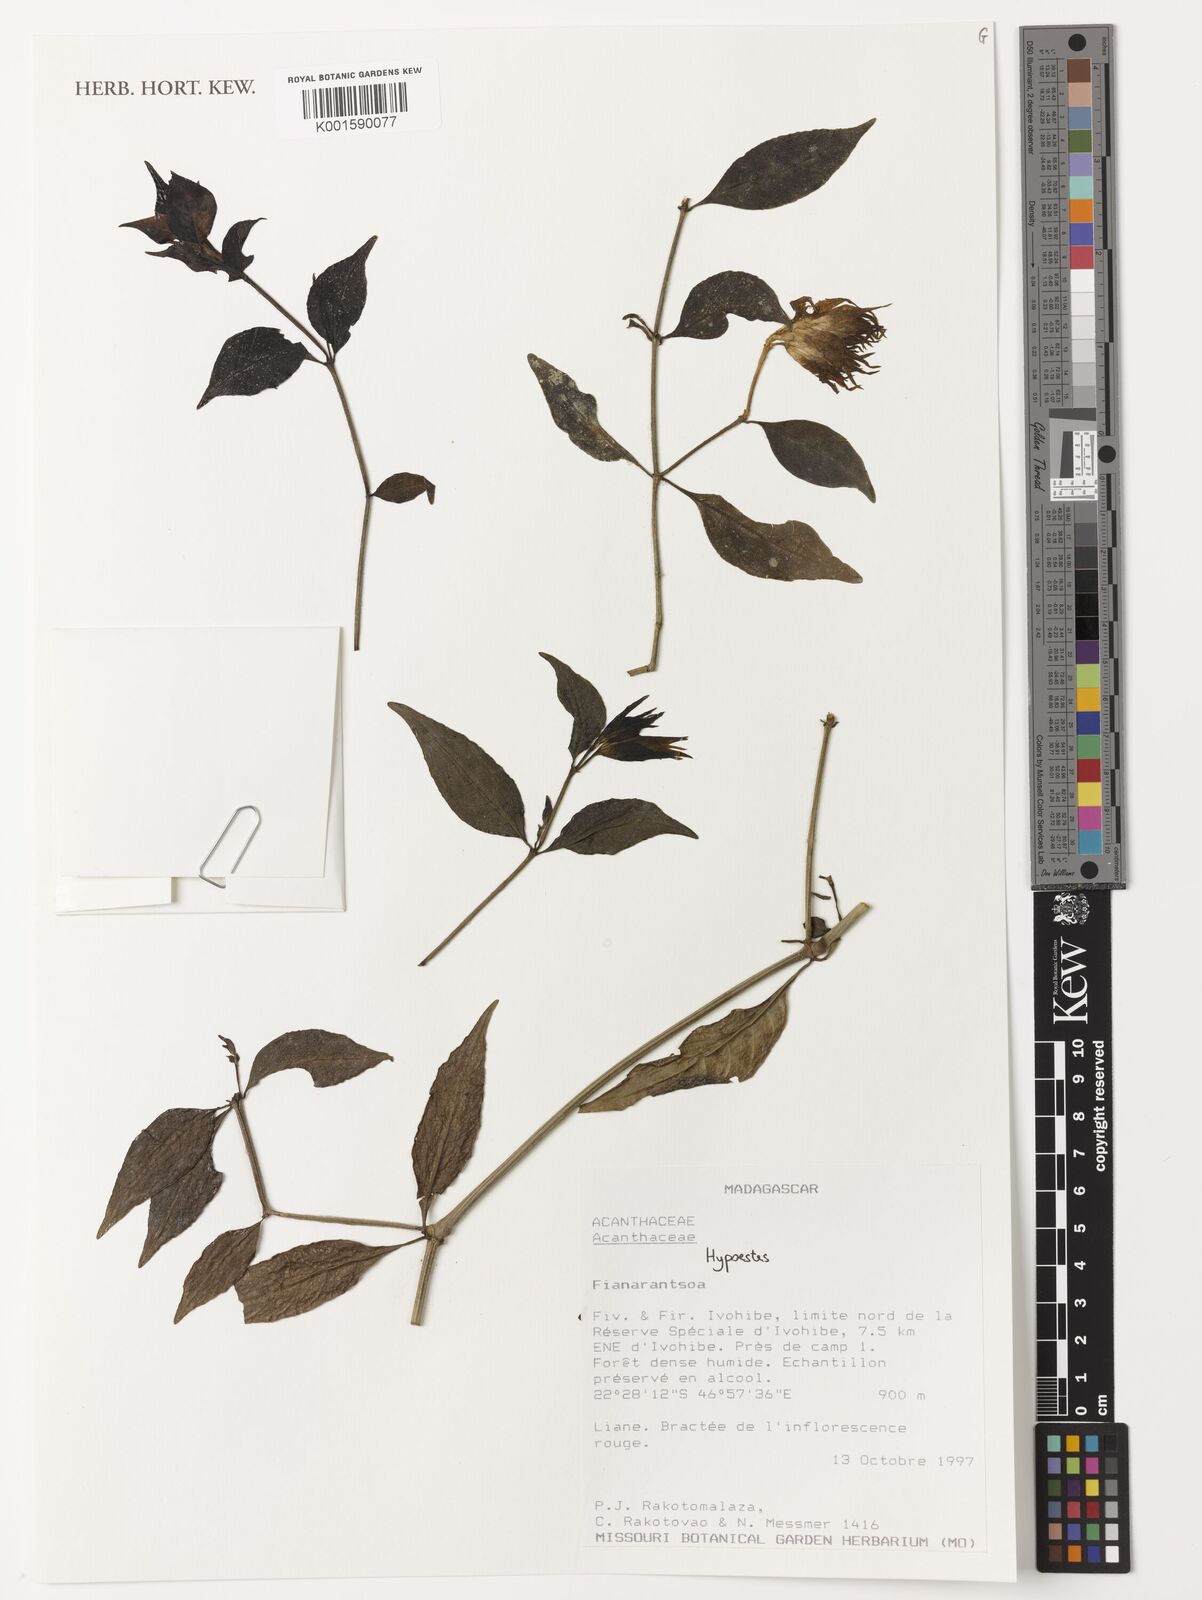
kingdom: Plantae
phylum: Tracheophyta
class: Magnoliopsida
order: Lamiales
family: Acanthaceae
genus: Hypoestes
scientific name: Hypoestes
